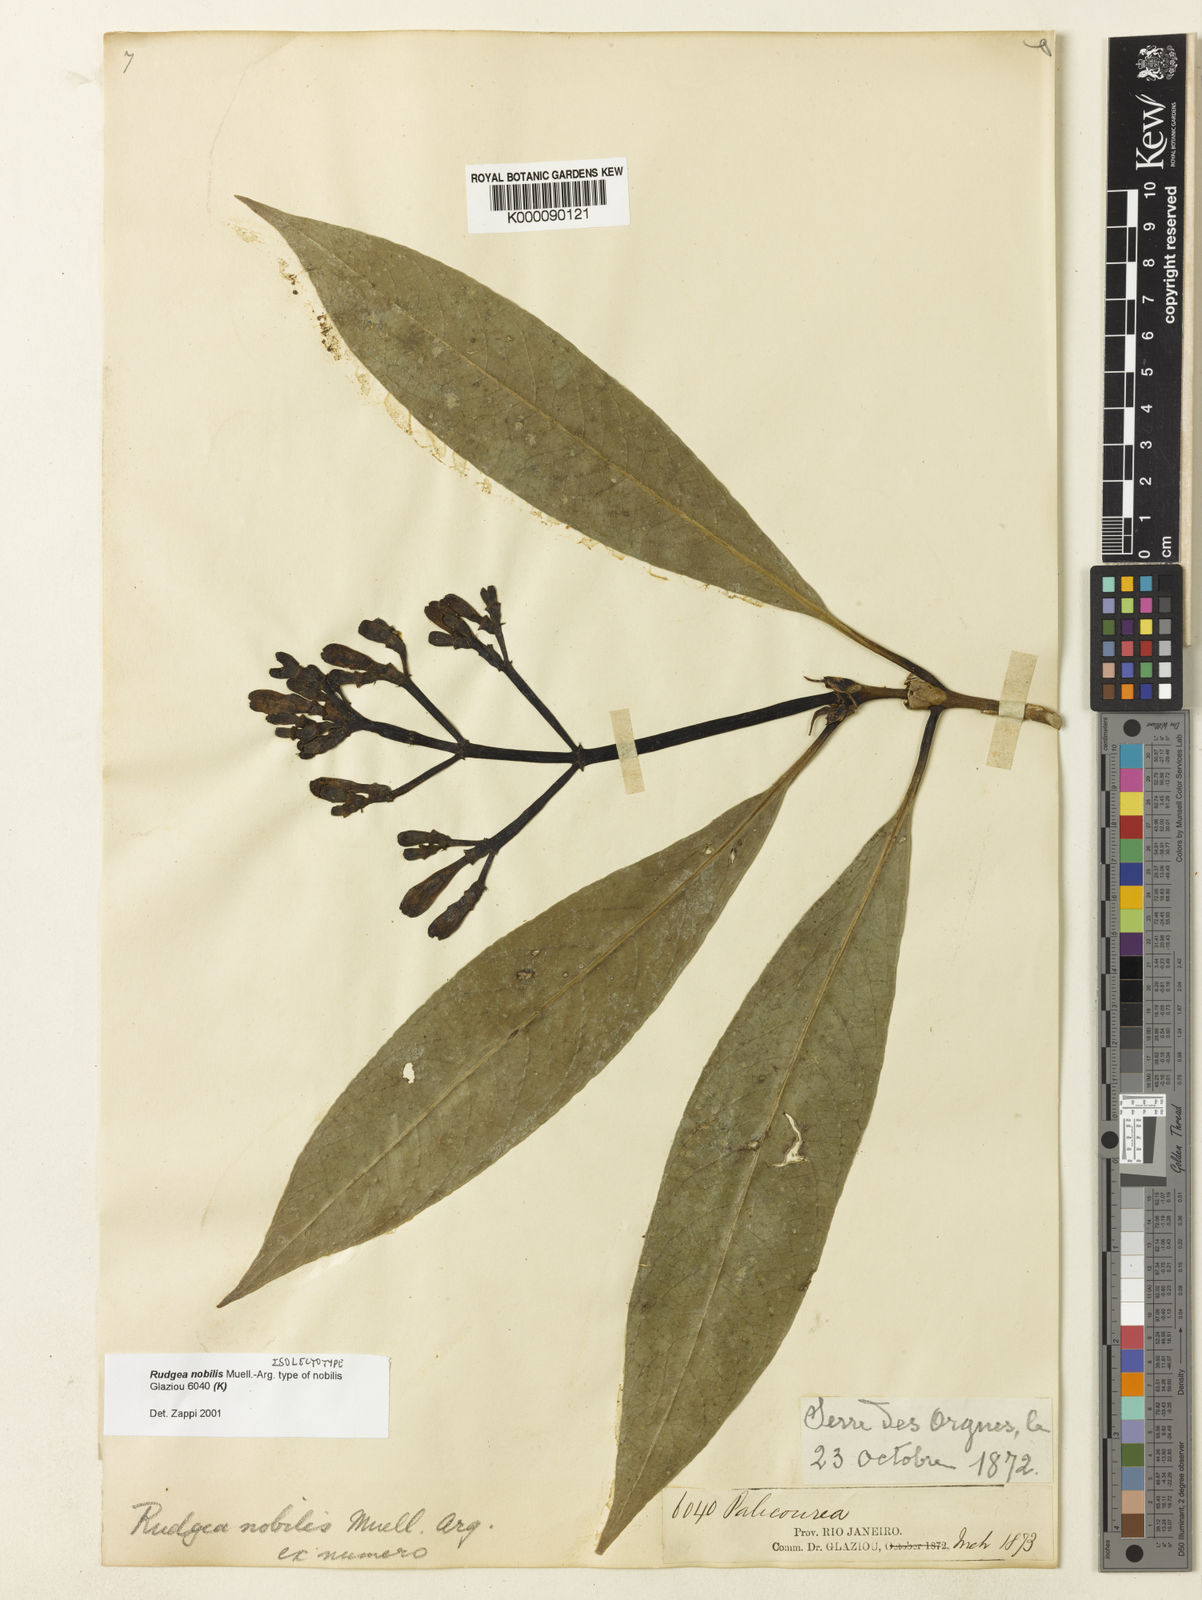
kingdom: Plantae
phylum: Tracheophyta
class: Magnoliopsida
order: Gentianales
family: Rubiaceae
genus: Rudgea
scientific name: Rudgea
